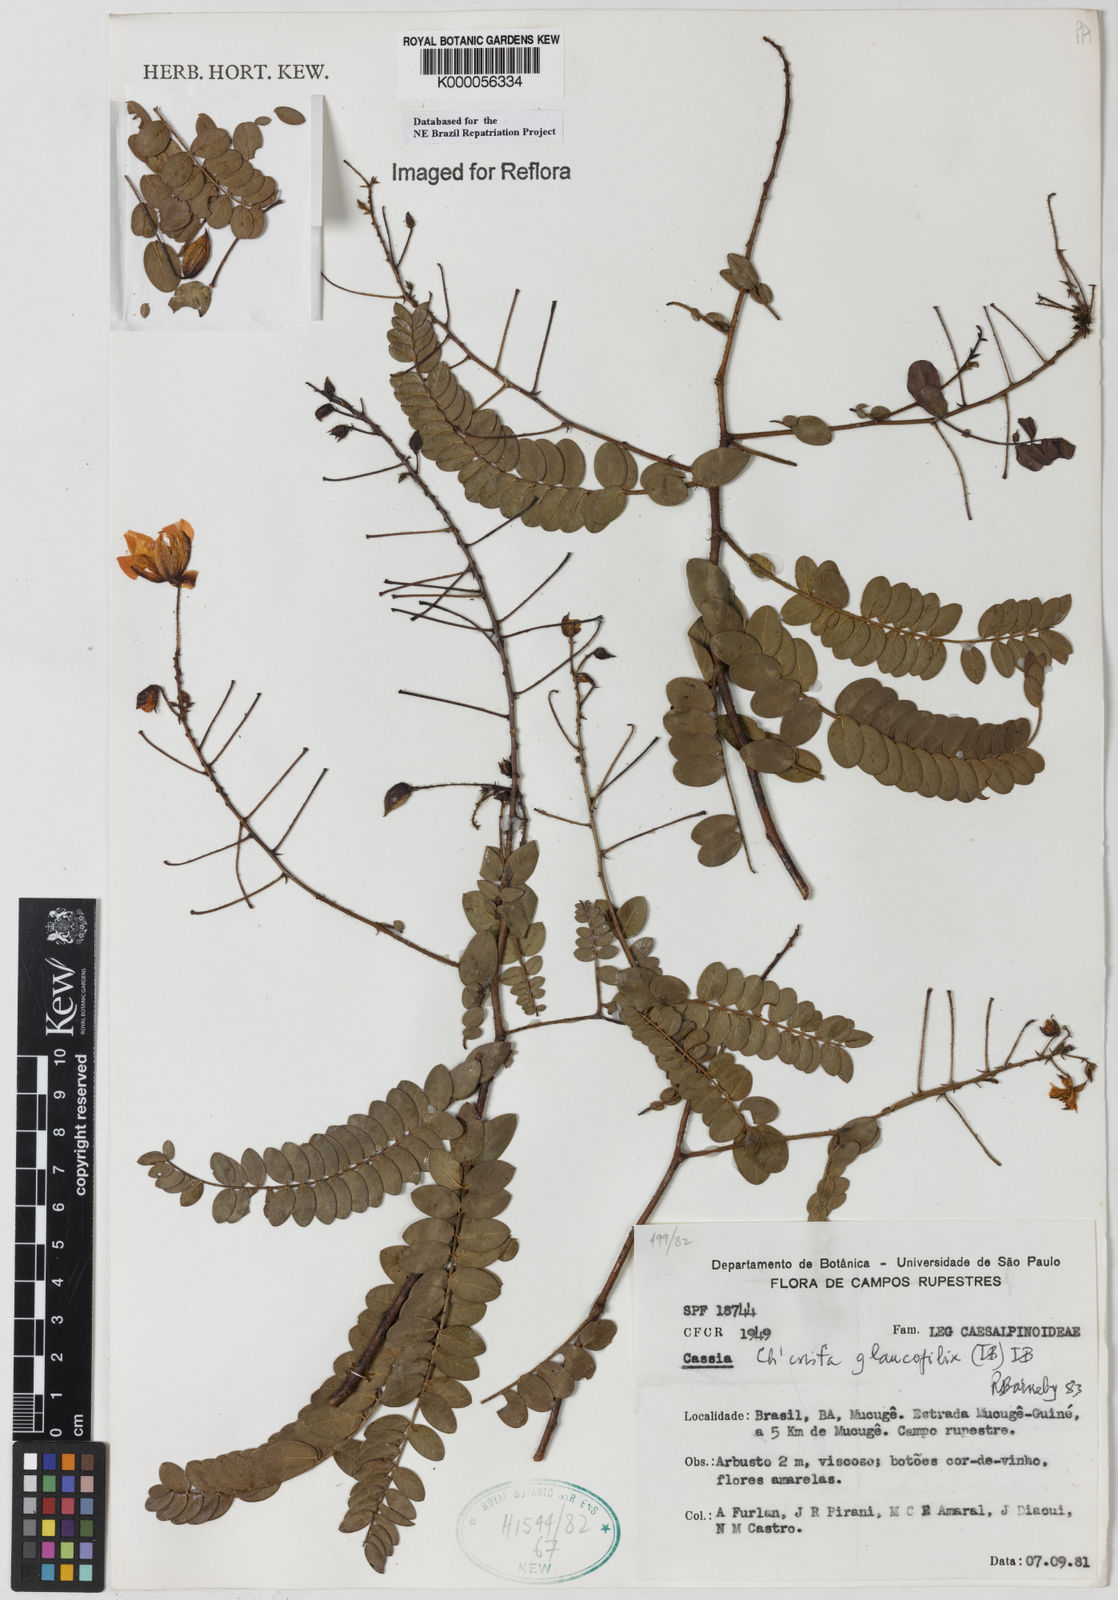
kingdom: Plantae
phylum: Tracheophyta
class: Magnoliopsida
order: Fabales
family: Fabaceae
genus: Chamaecrista
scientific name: Chamaecrista glaucofilix
